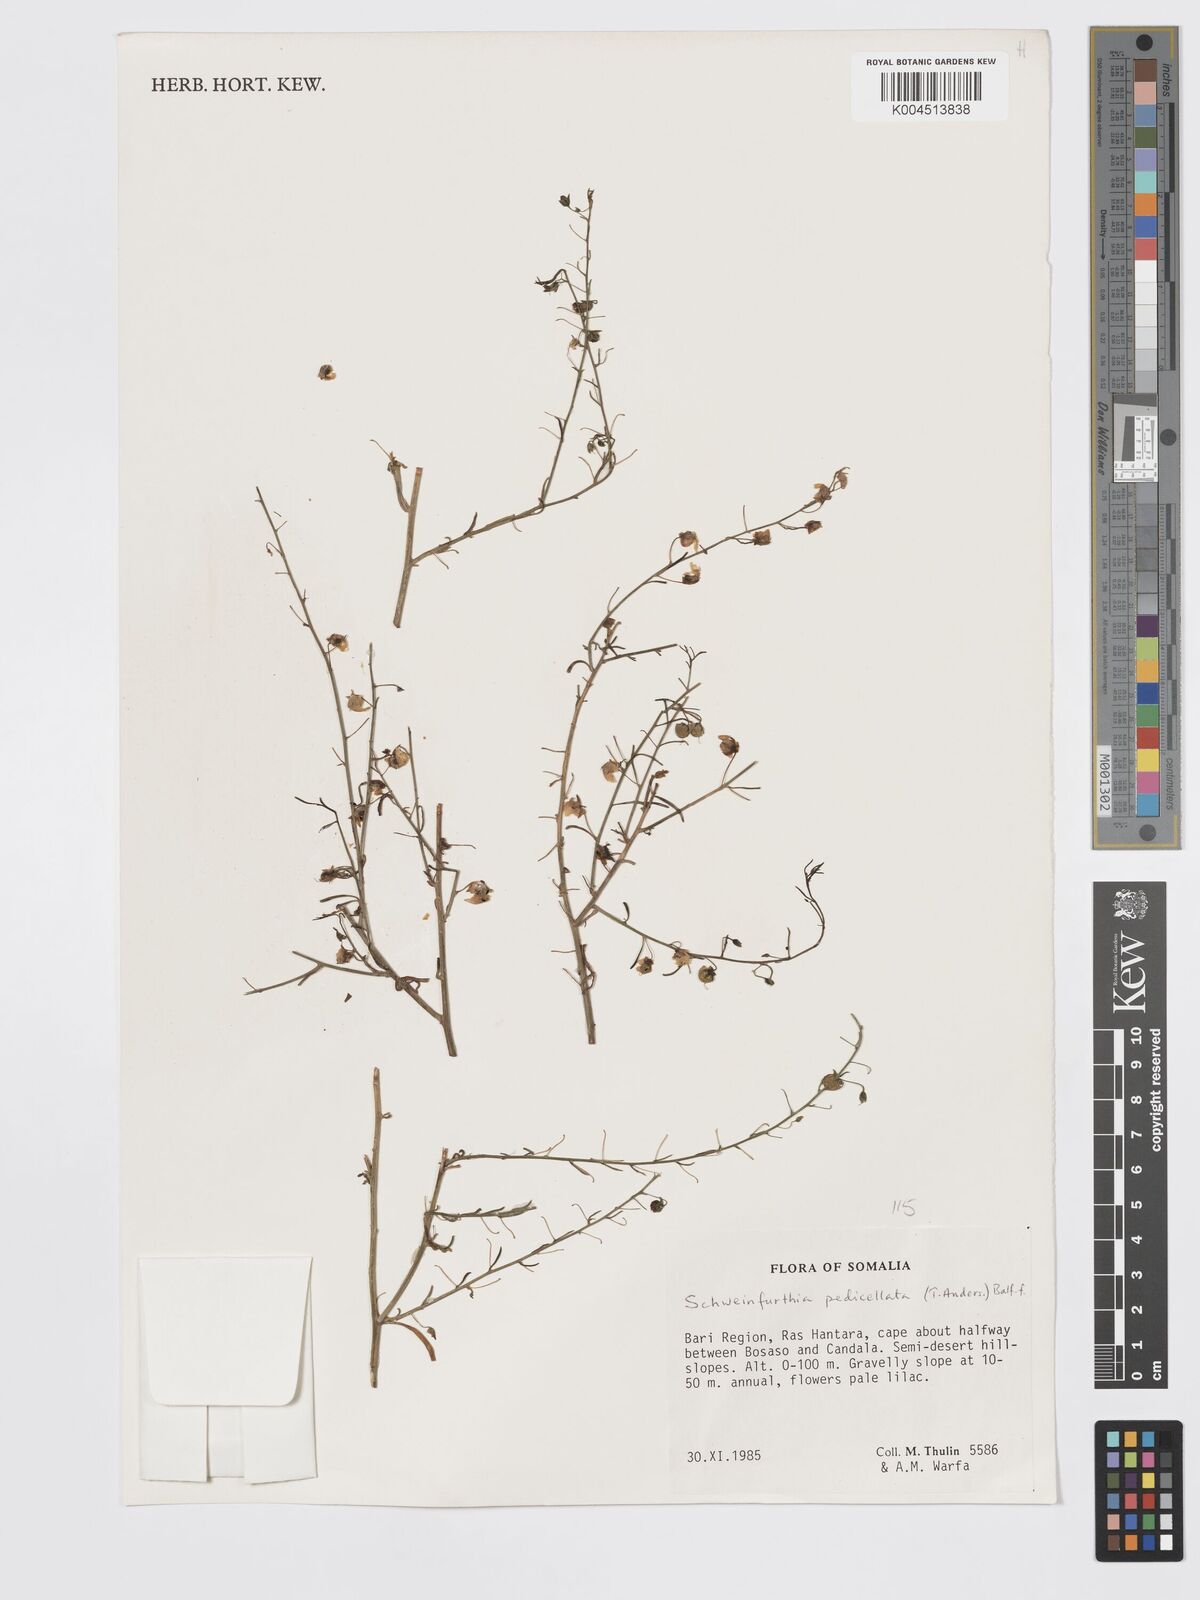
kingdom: Plantae
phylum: Tracheophyta
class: Magnoliopsida
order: Lamiales
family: Plantaginaceae
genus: Schweinfurthia
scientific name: Schweinfurthia pedicellata
